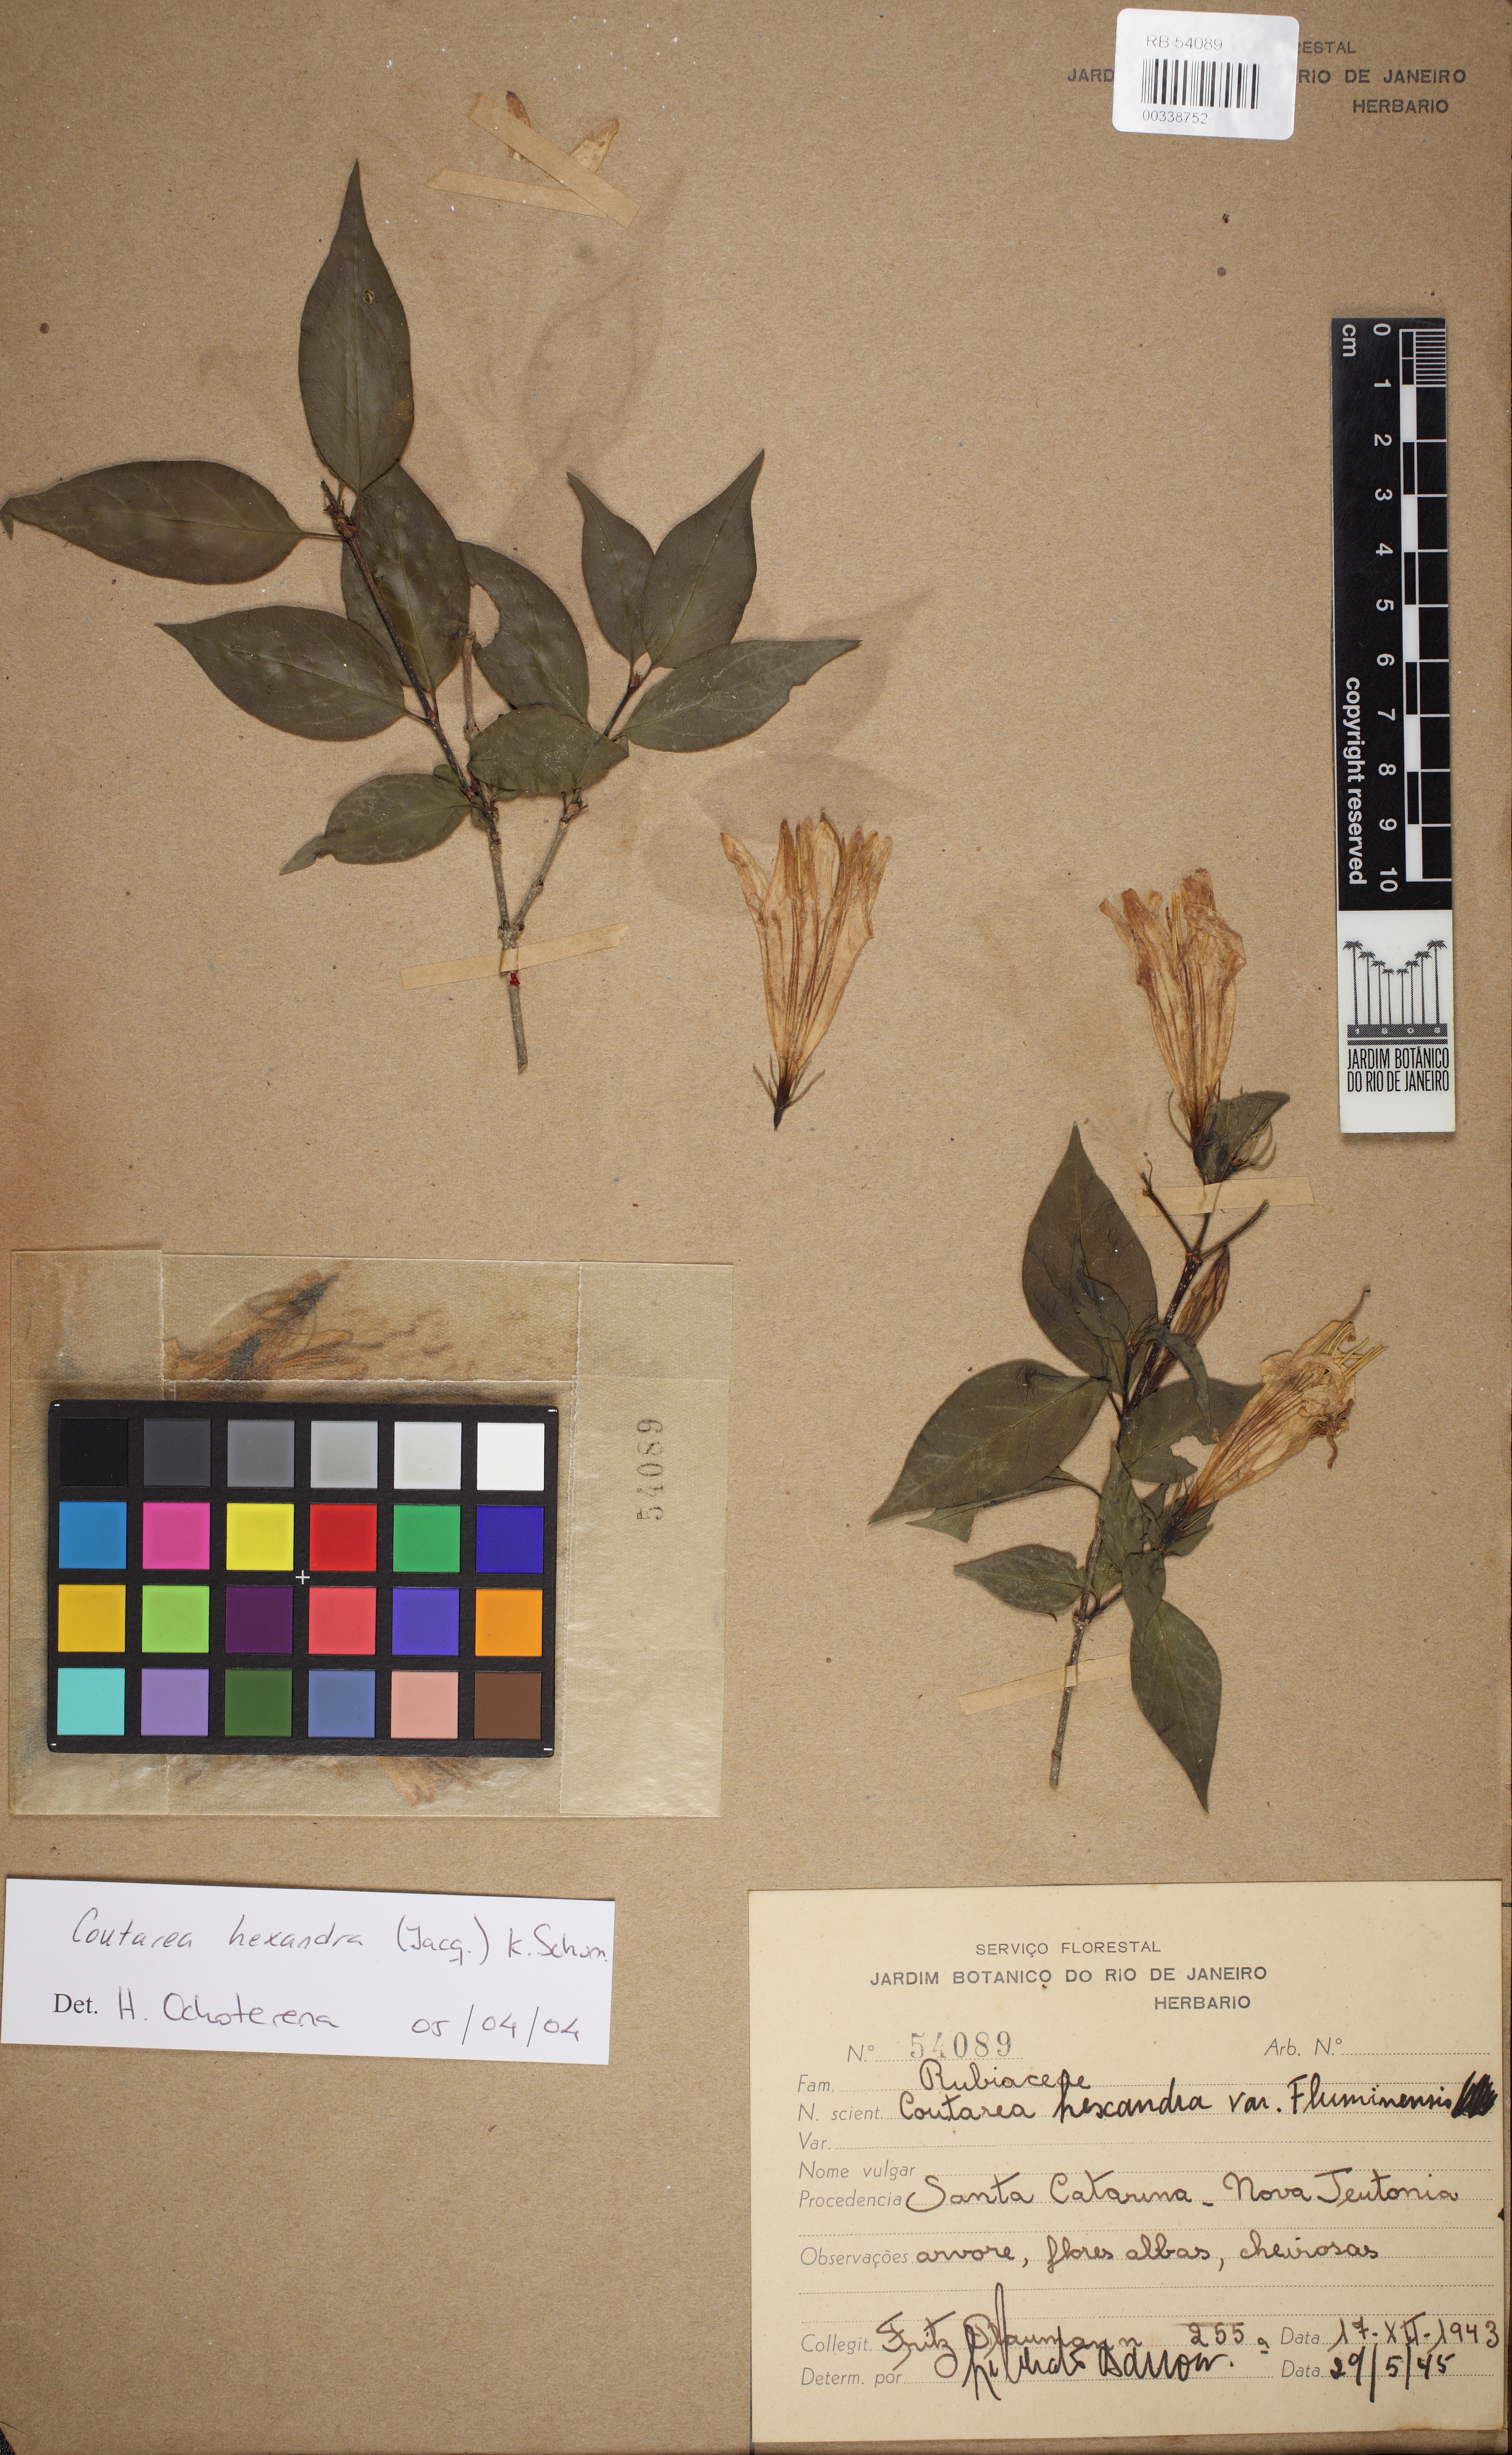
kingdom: Plantae
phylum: Tracheophyta
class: Magnoliopsida
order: Gentianales
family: Rubiaceae
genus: Coutarea
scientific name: Coutarea hexandra
